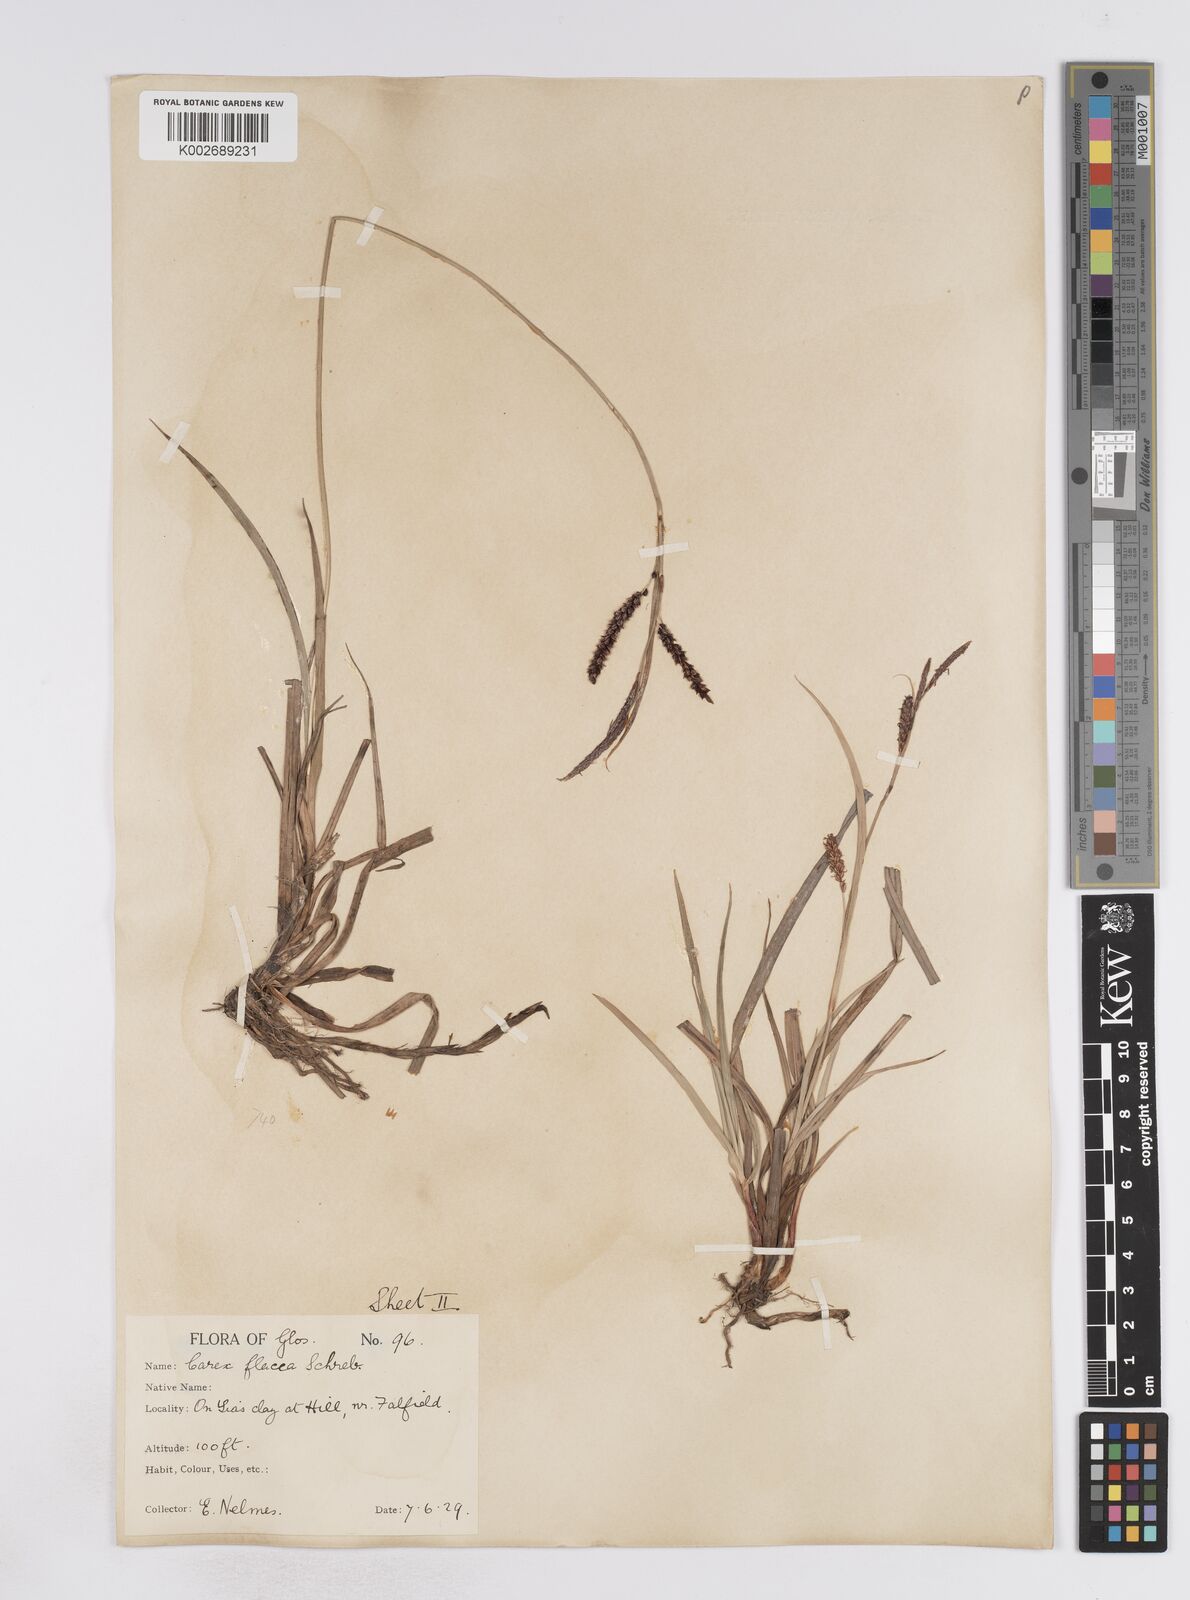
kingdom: Plantae
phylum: Tracheophyta
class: Liliopsida
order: Poales
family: Cyperaceae
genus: Carex
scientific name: Carex flacca
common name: Glaucous sedge
